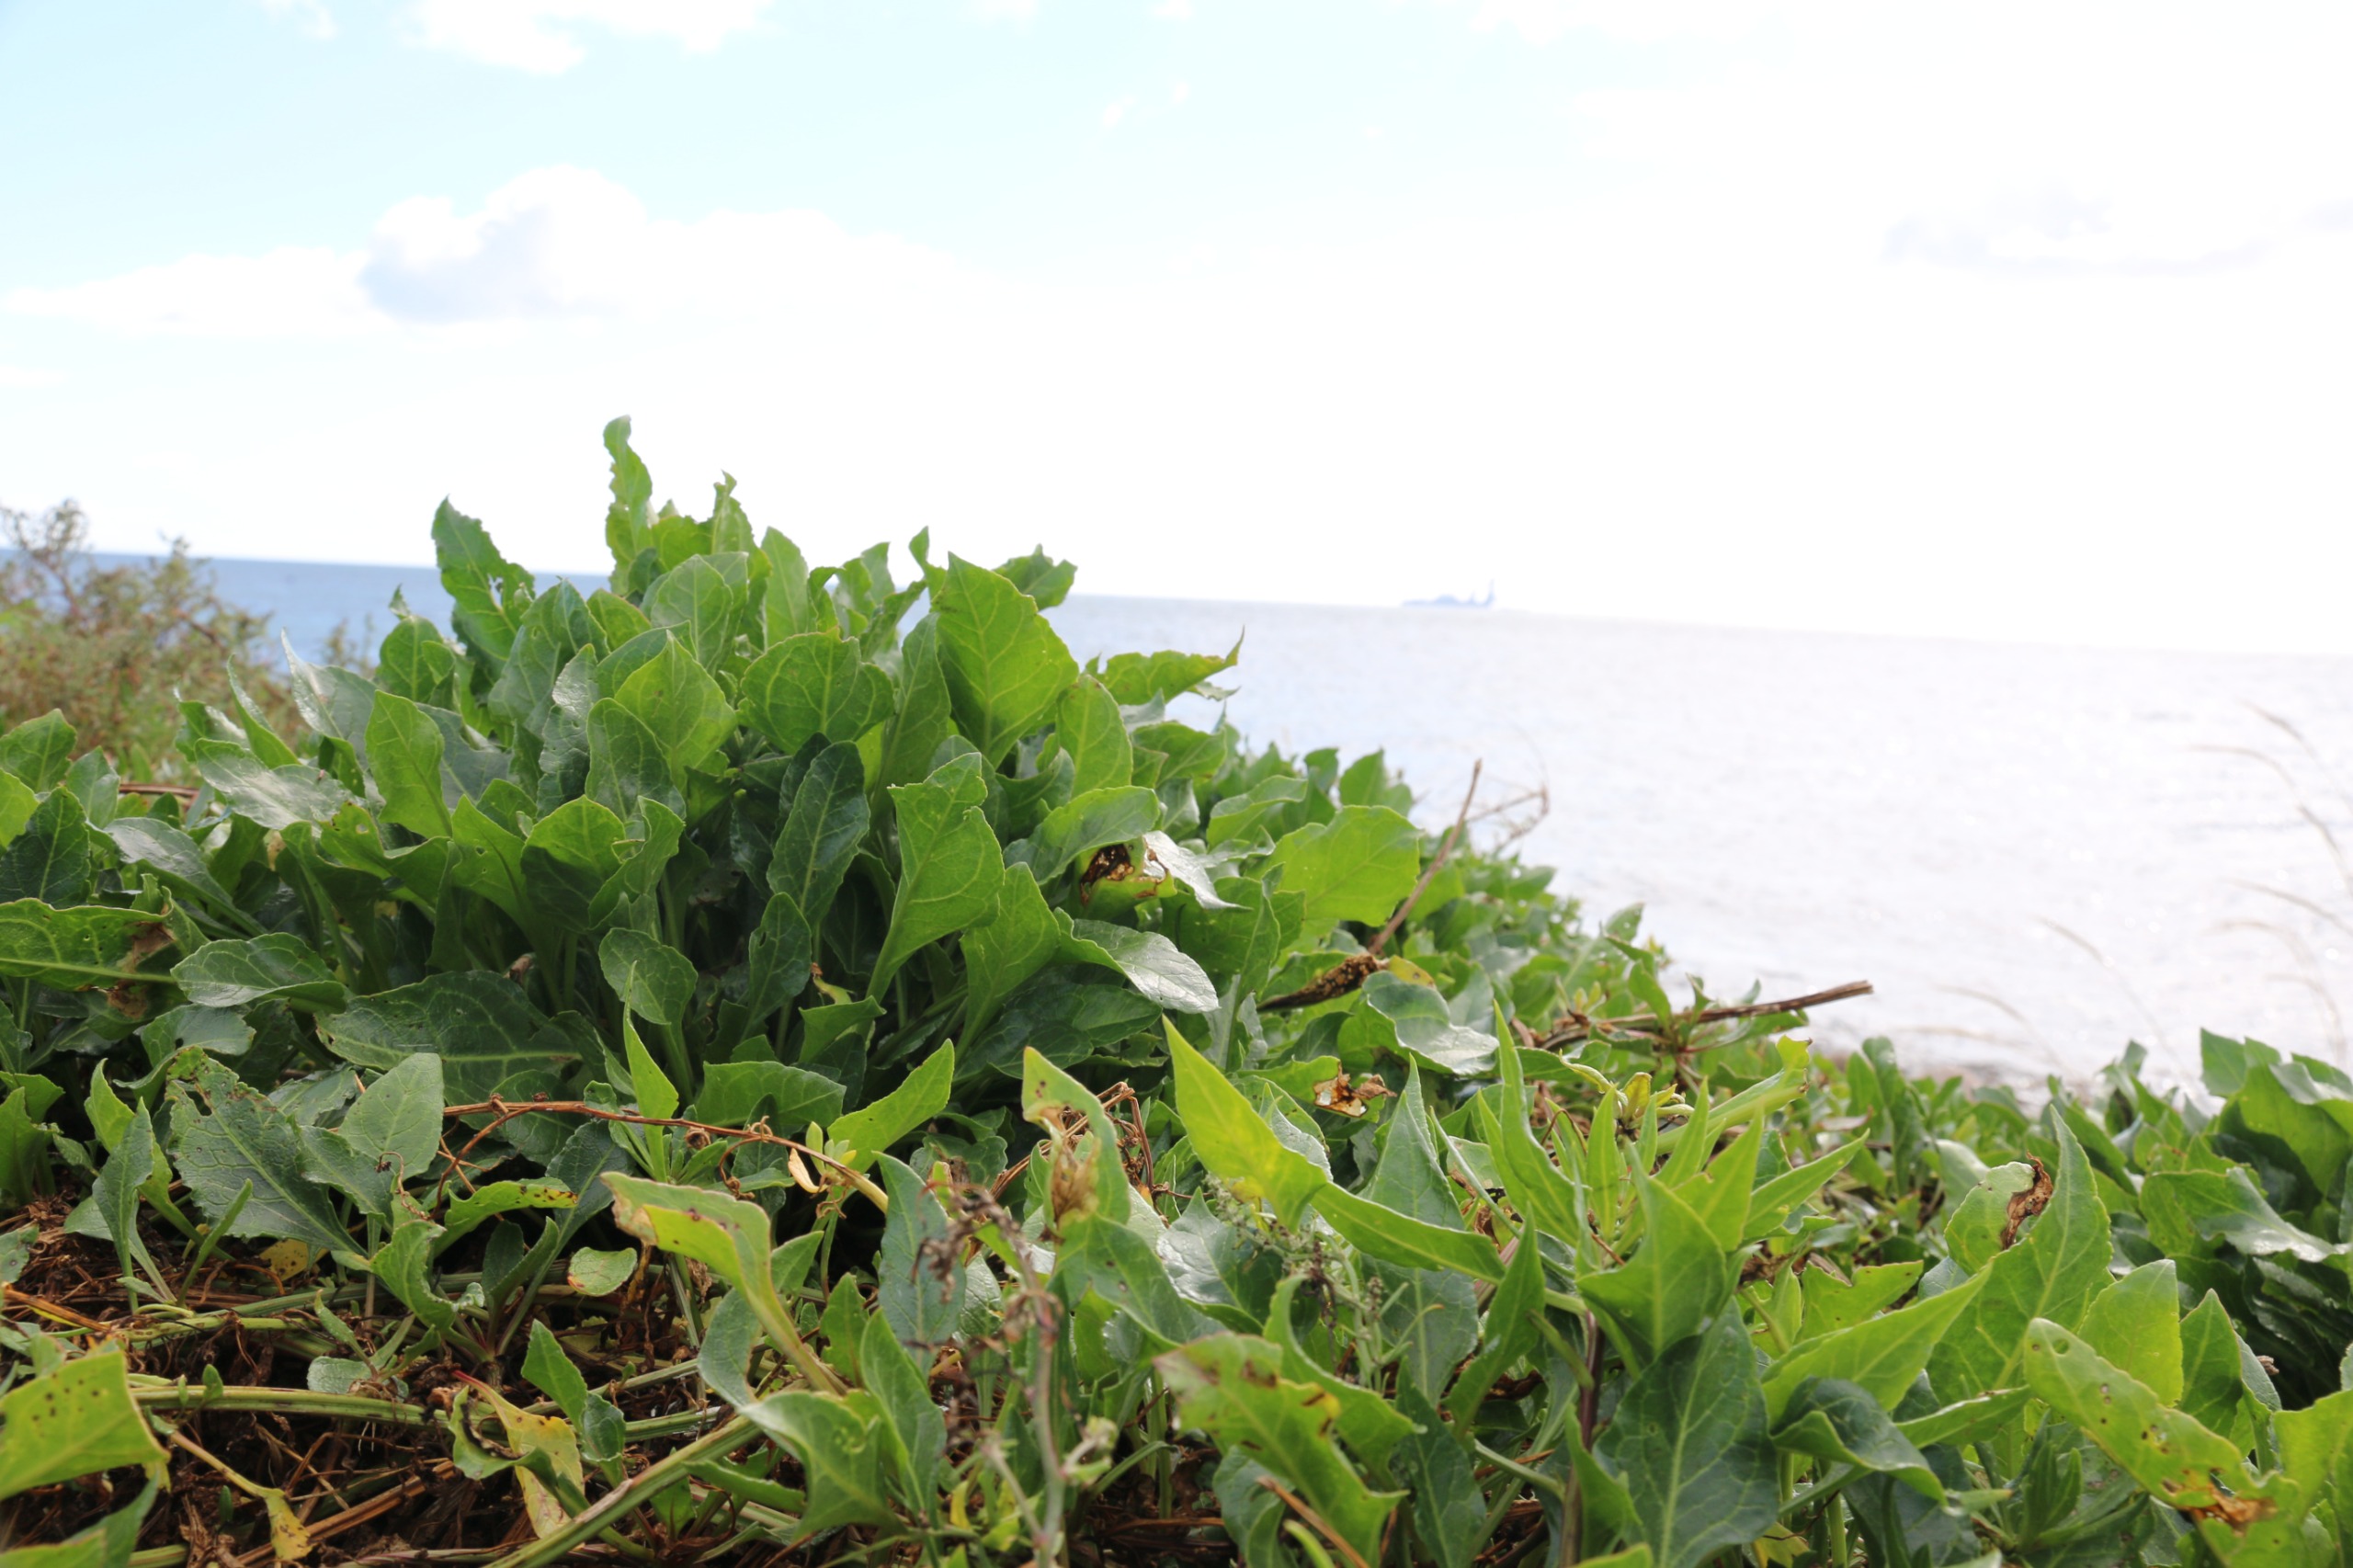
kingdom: Plantae
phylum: Tracheophyta
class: Magnoliopsida
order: Caryophyllales
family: Amaranthaceae
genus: Beta
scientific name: Beta vulgaris
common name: Bede
